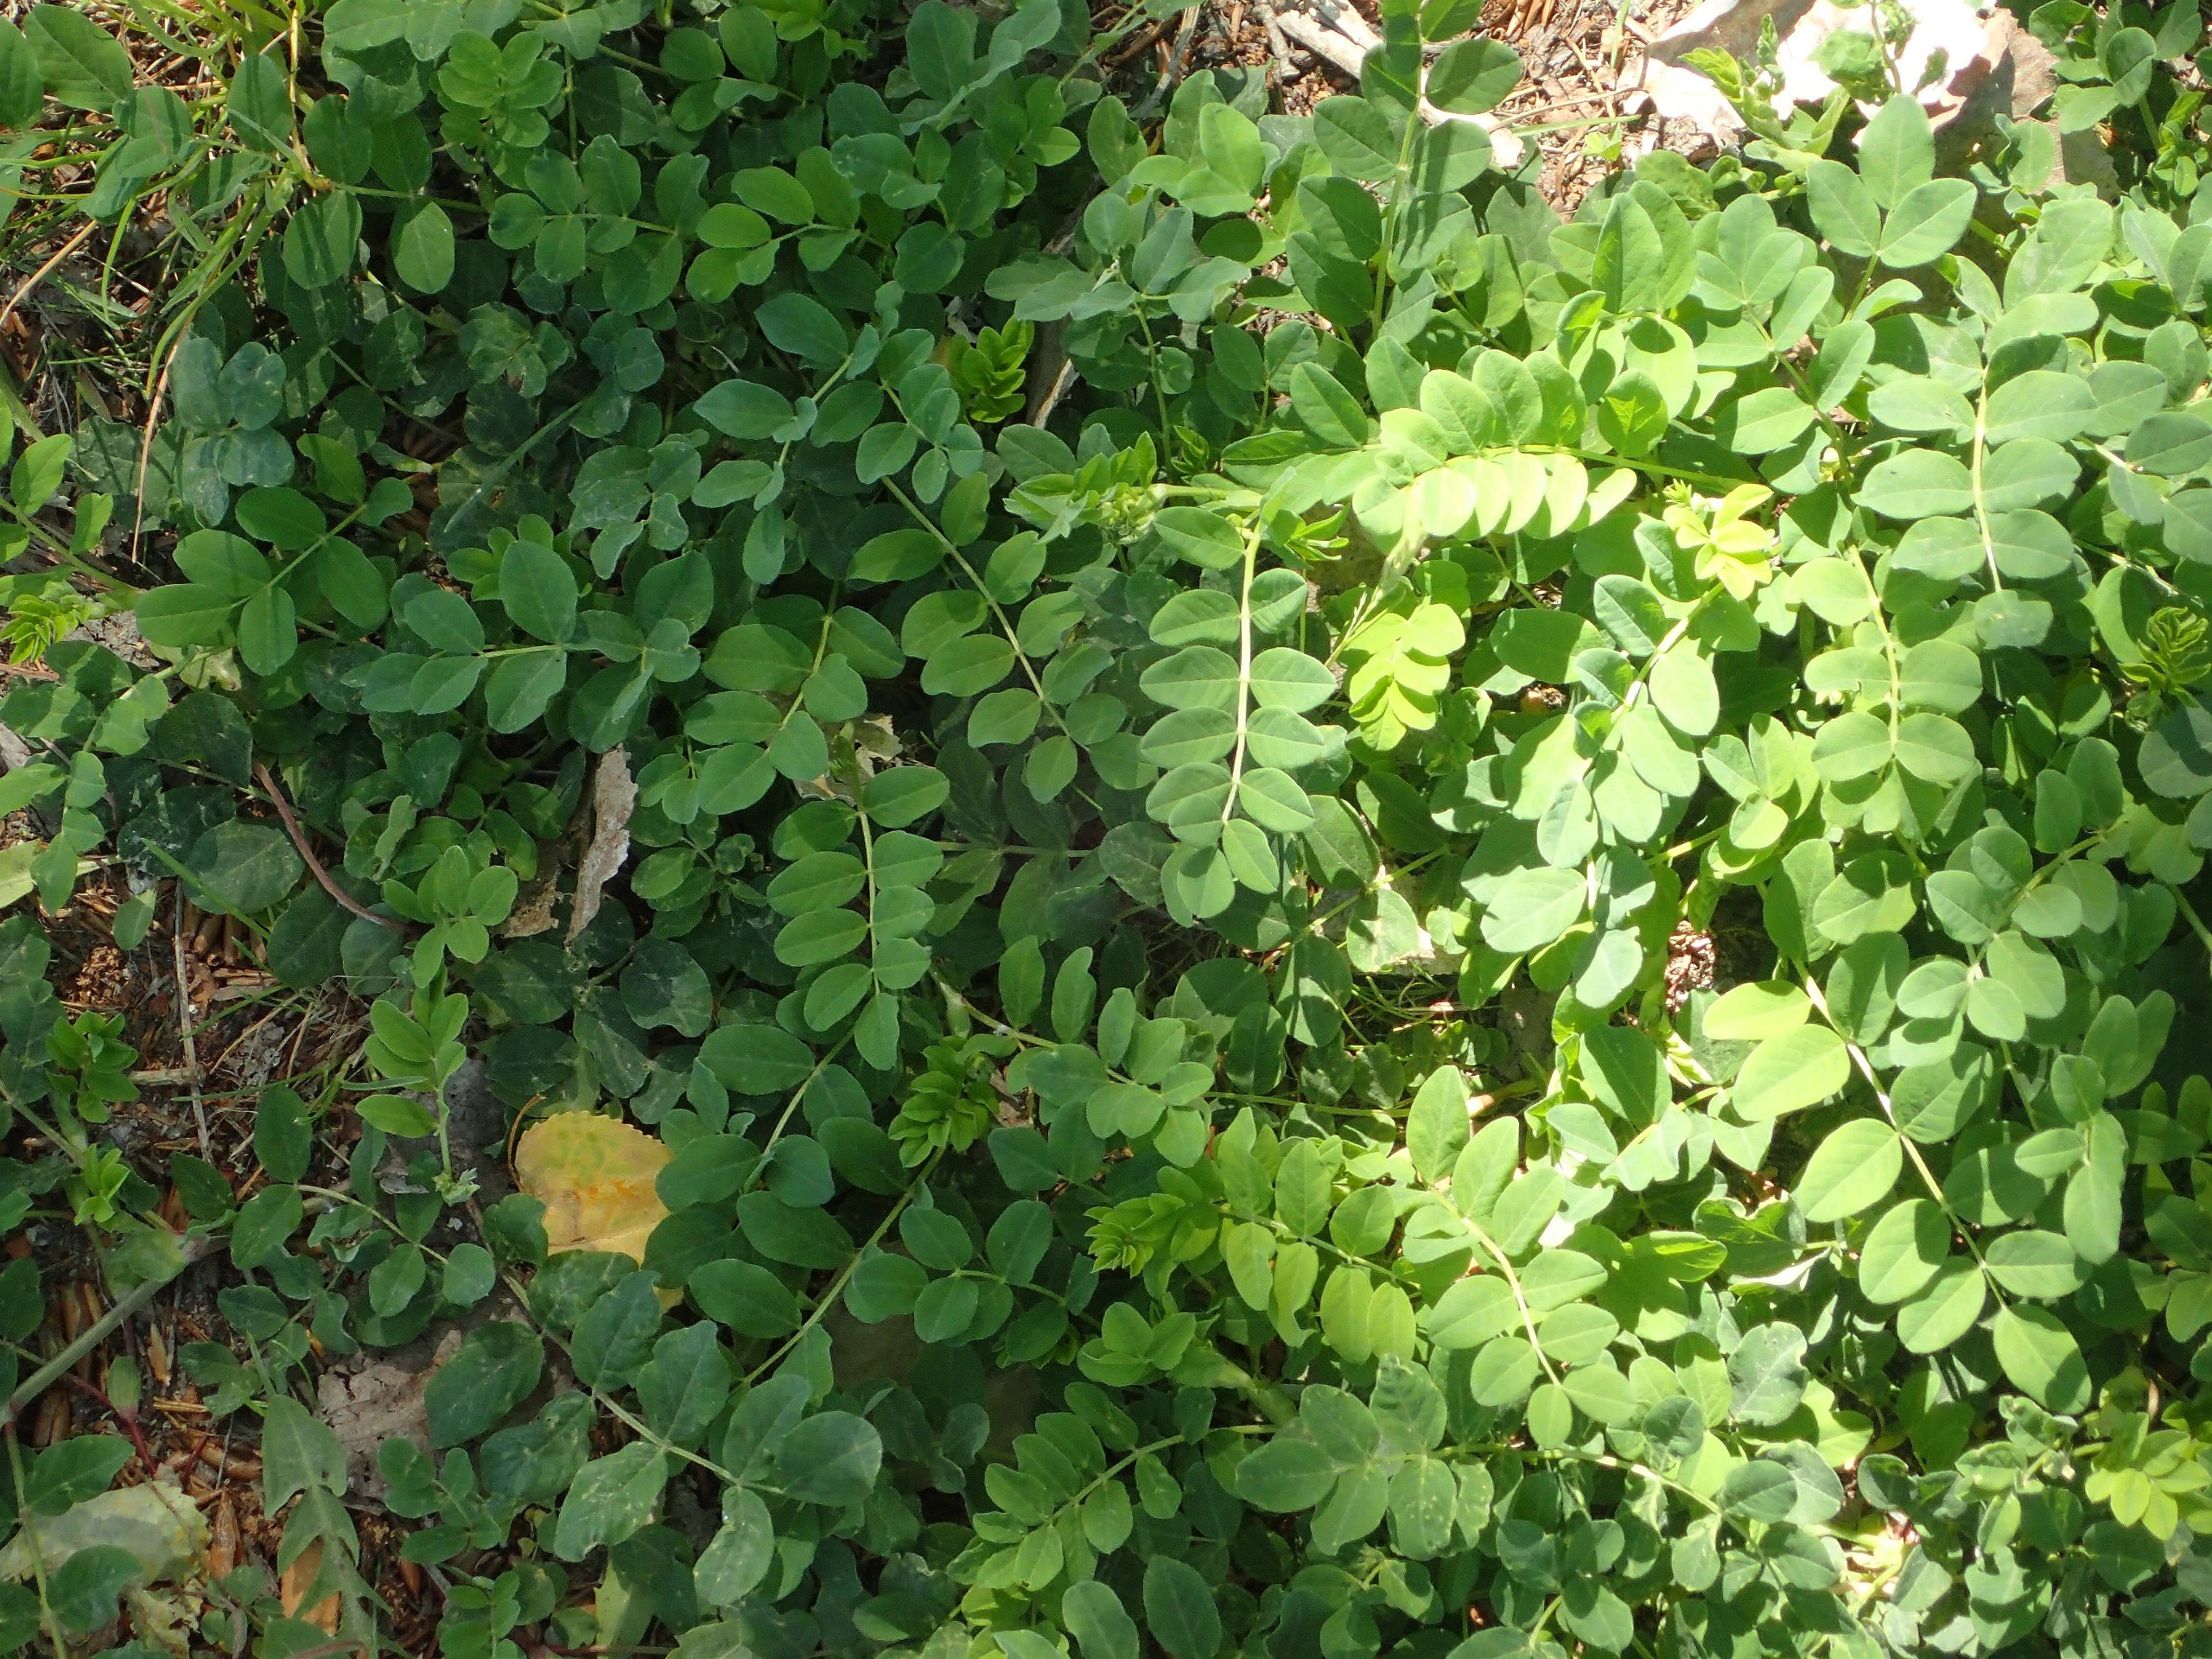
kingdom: Plantae
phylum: Tracheophyta
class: Magnoliopsida
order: Fabales
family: Fabaceae
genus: Astragalus
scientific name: Astragalus glycyphyllos
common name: Sød astragel
